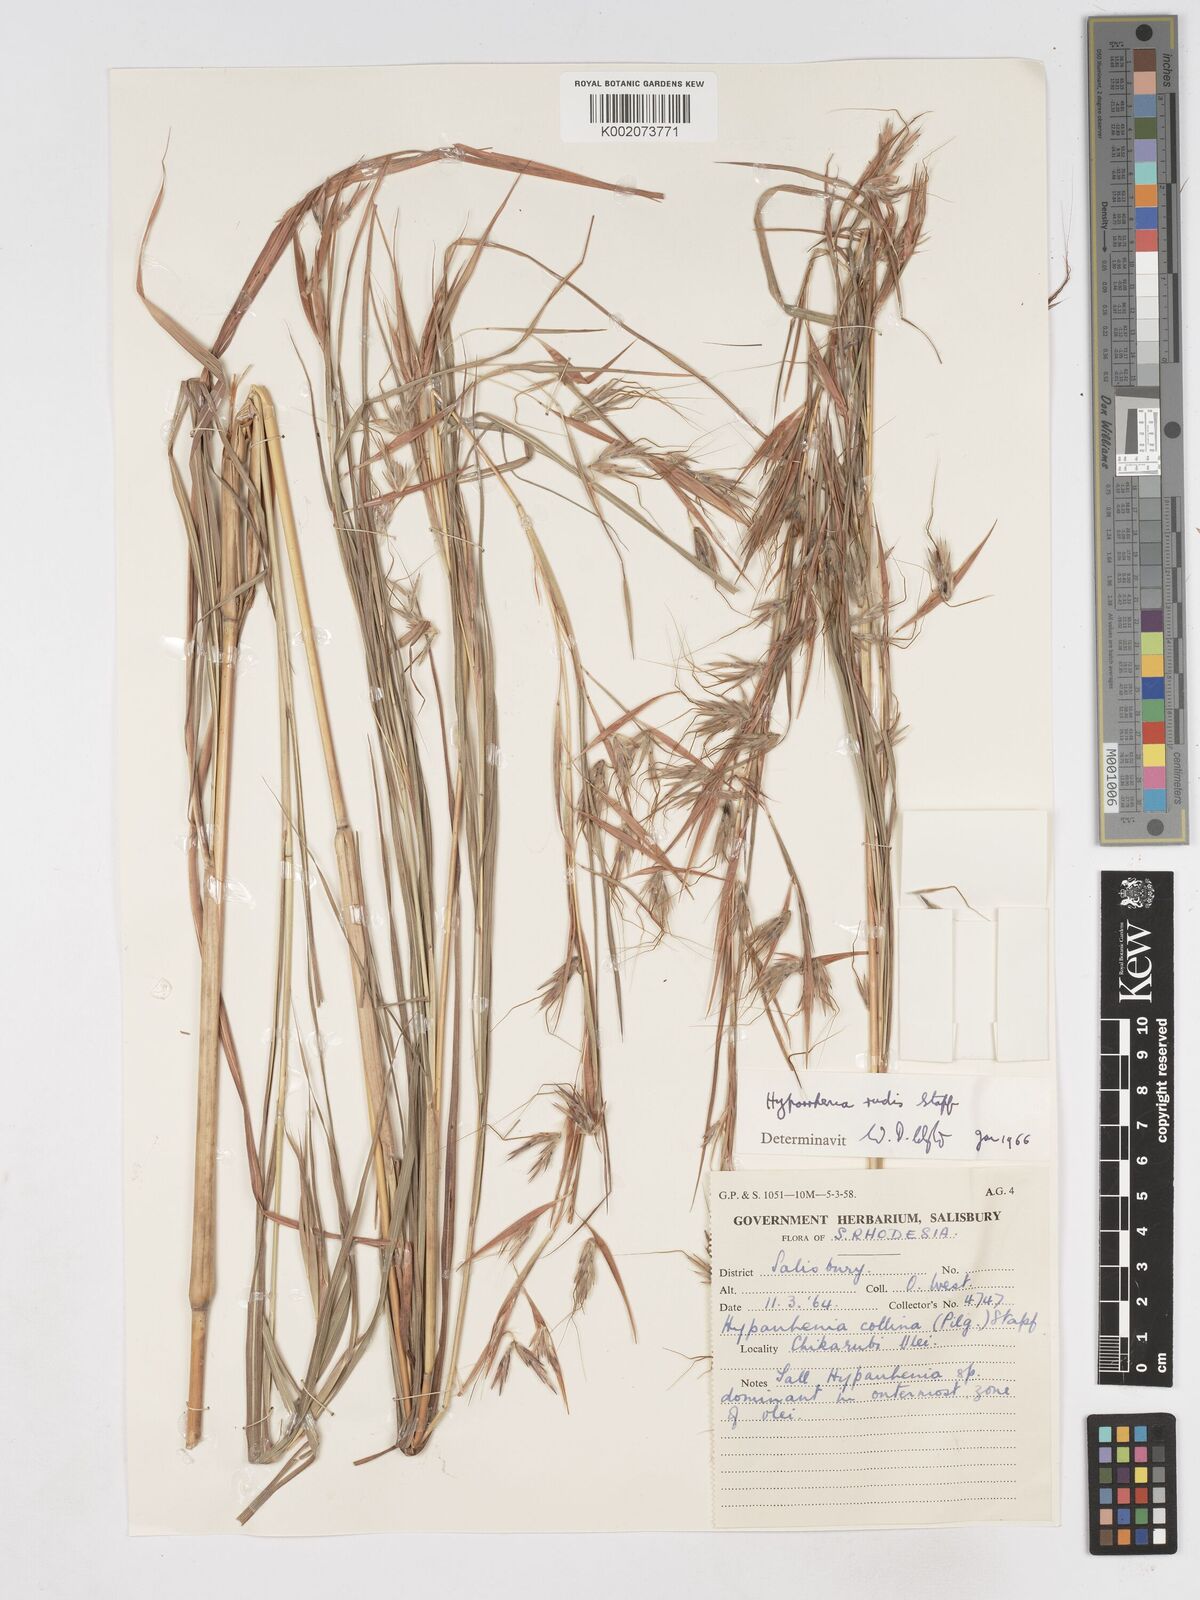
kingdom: Plantae
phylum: Tracheophyta
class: Liliopsida
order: Poales
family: Poaceae
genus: Hyparrhenia
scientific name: Hyparrhenia rudis
